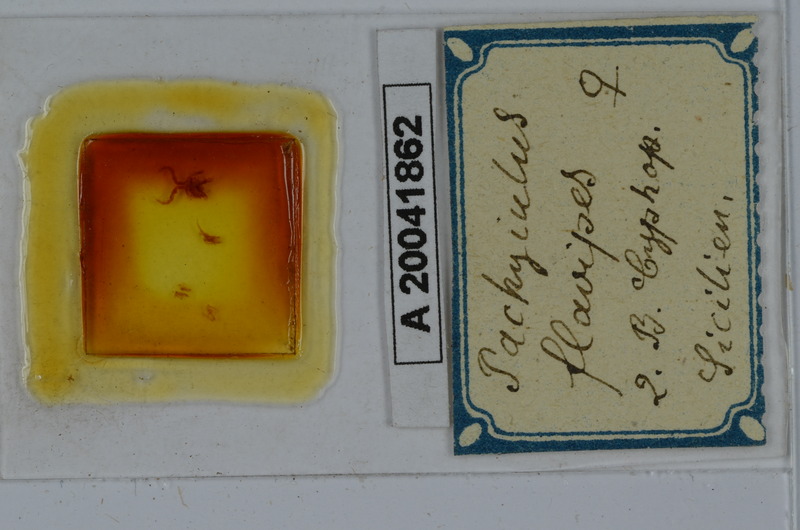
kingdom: Animalia
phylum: Arthropoda
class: Diplopoda
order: Julida
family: Julidae
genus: Pachyiulus
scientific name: Pachyiulus flavipes
